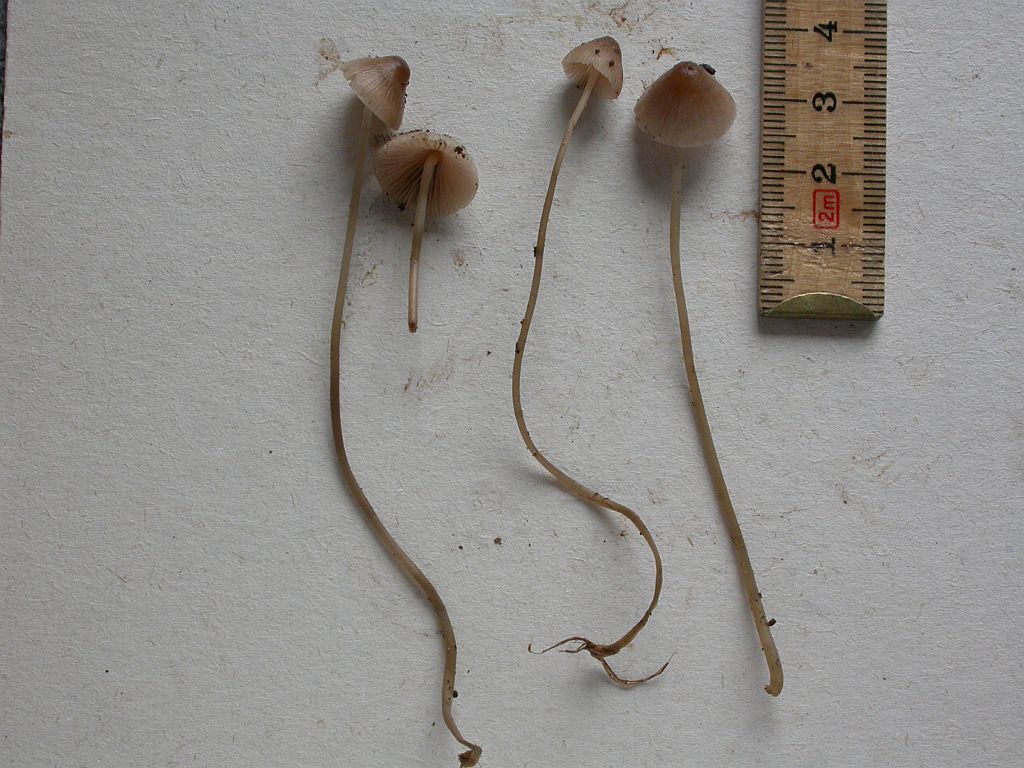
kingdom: Fungi
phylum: Basidiomycota
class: Agaricomycetes
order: Agaricales
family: Mycenaceae
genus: Mycena
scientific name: Mycena filopes
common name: jod-huesvamp
